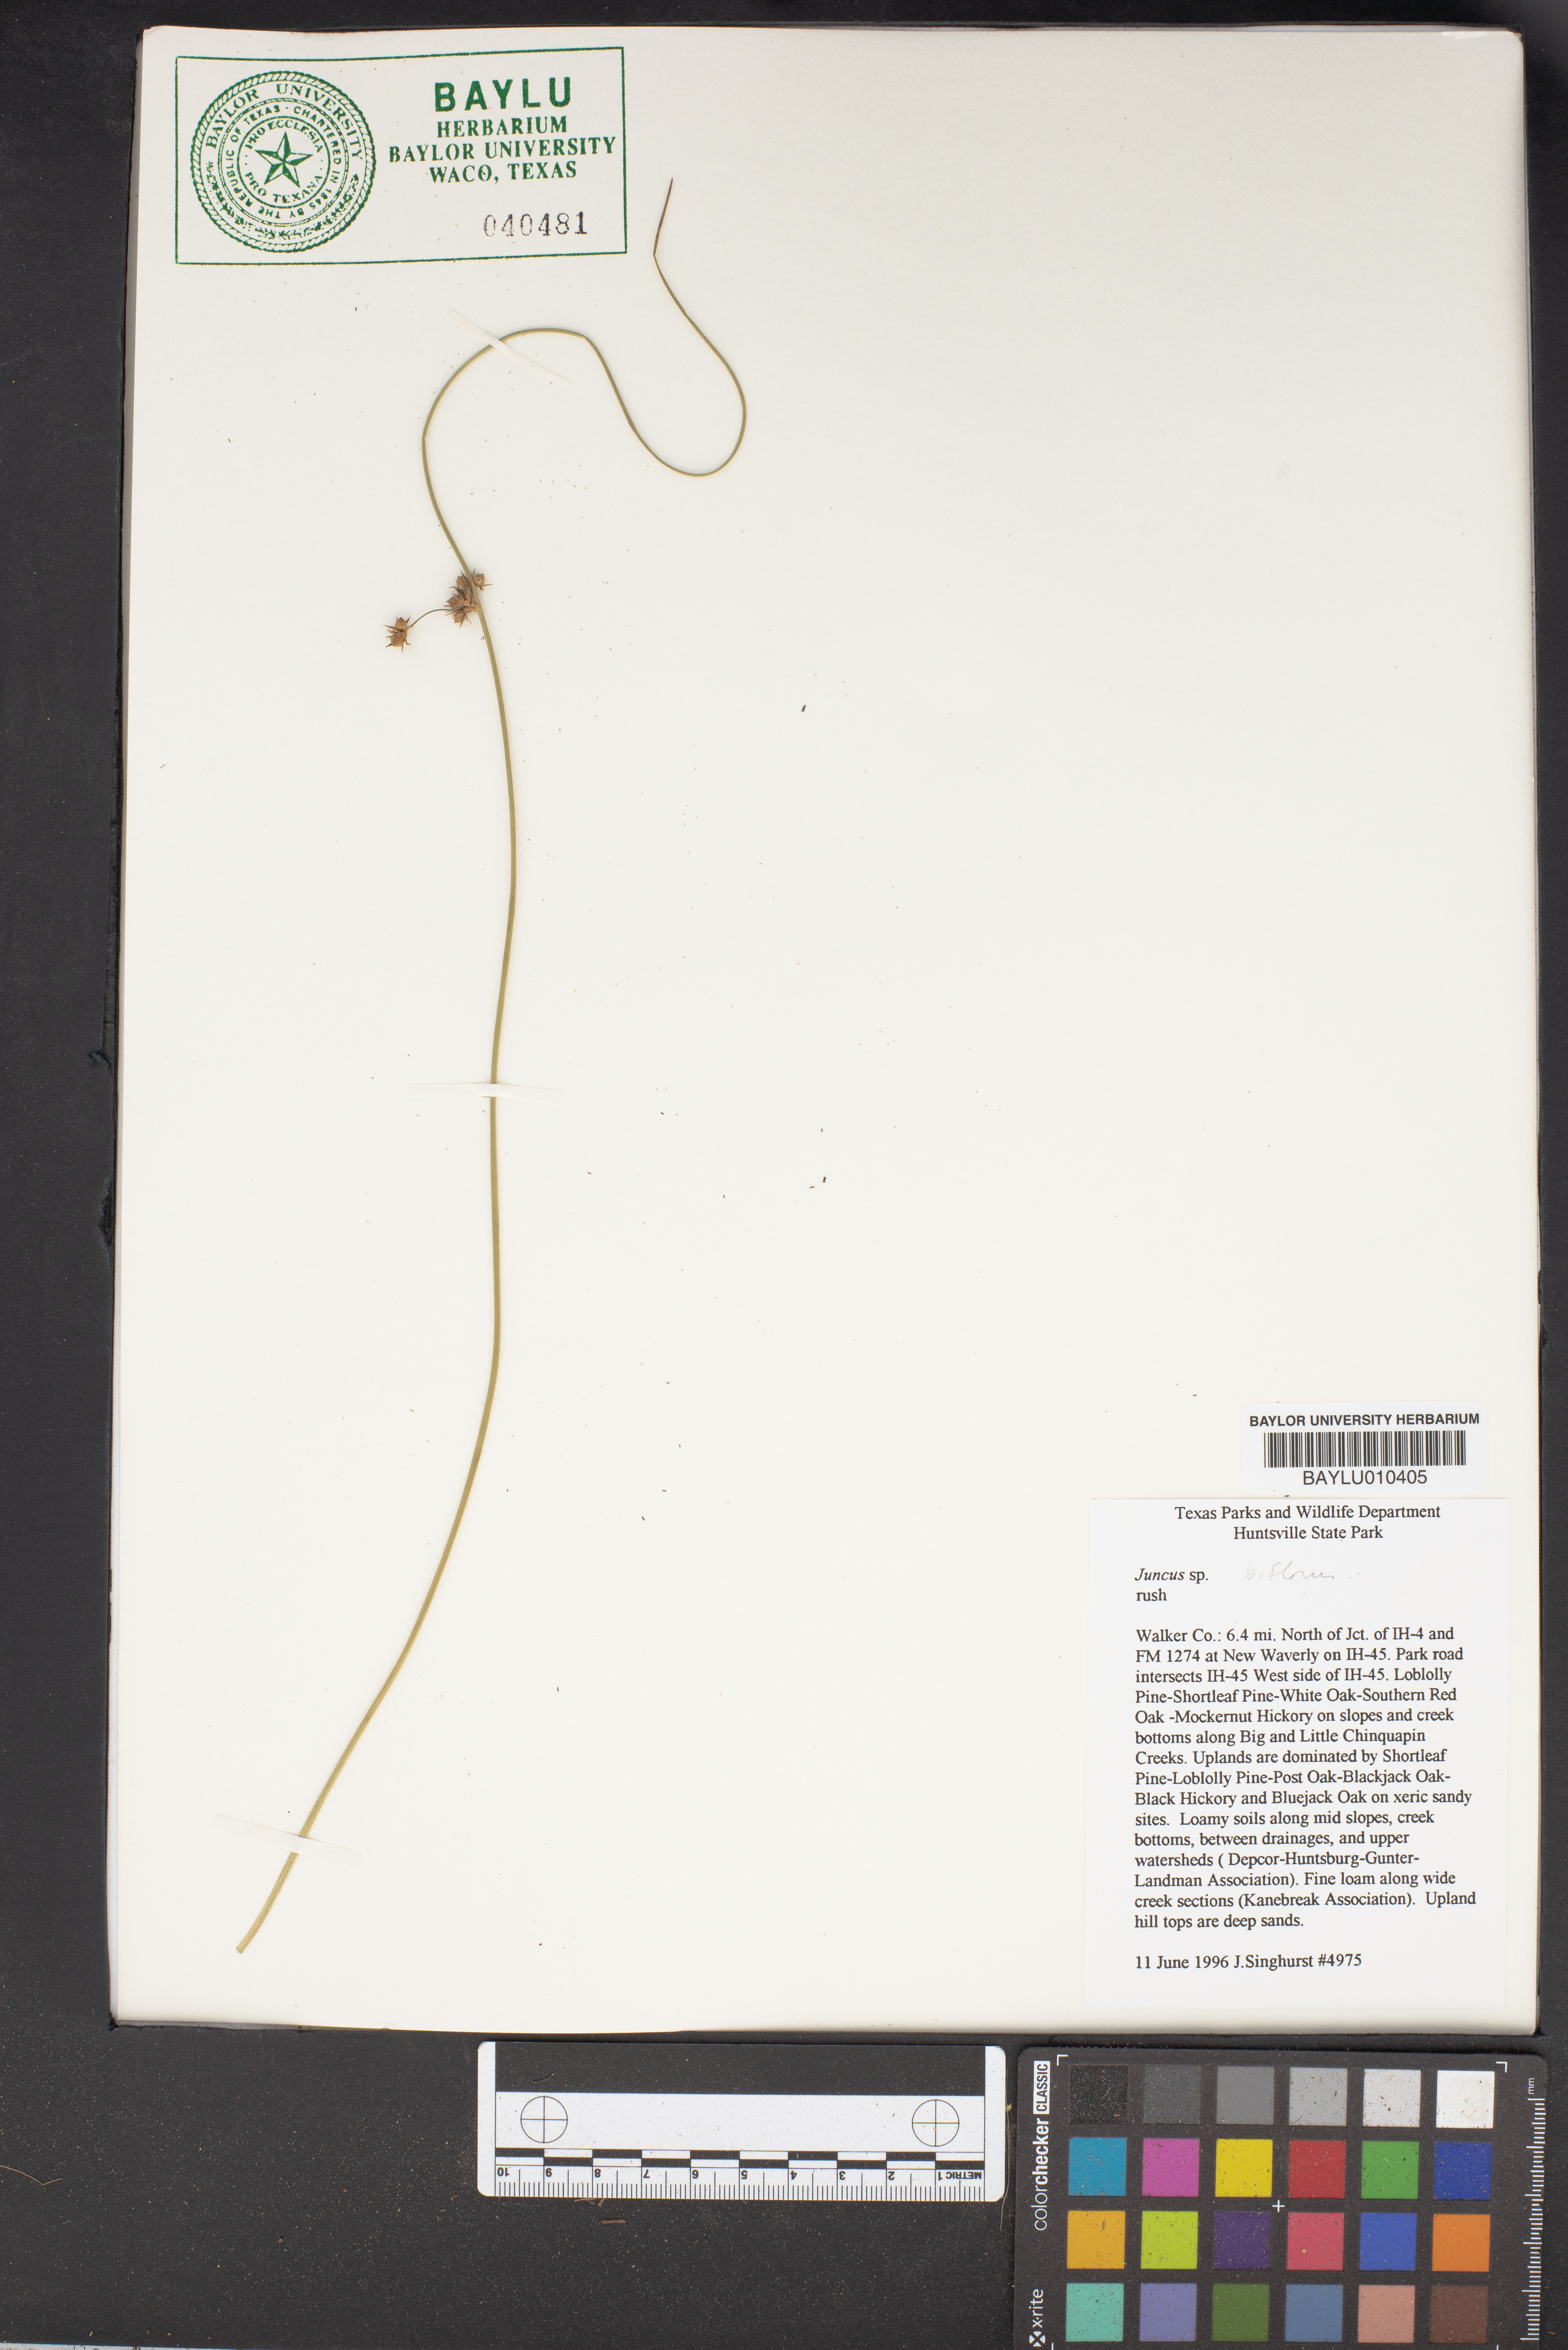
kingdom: Plantae
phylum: Tracheophyta
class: Liliopsida
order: Poales
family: Juncaceae
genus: Juncus
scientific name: Juncus diffusissimus
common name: Slimpod rush
